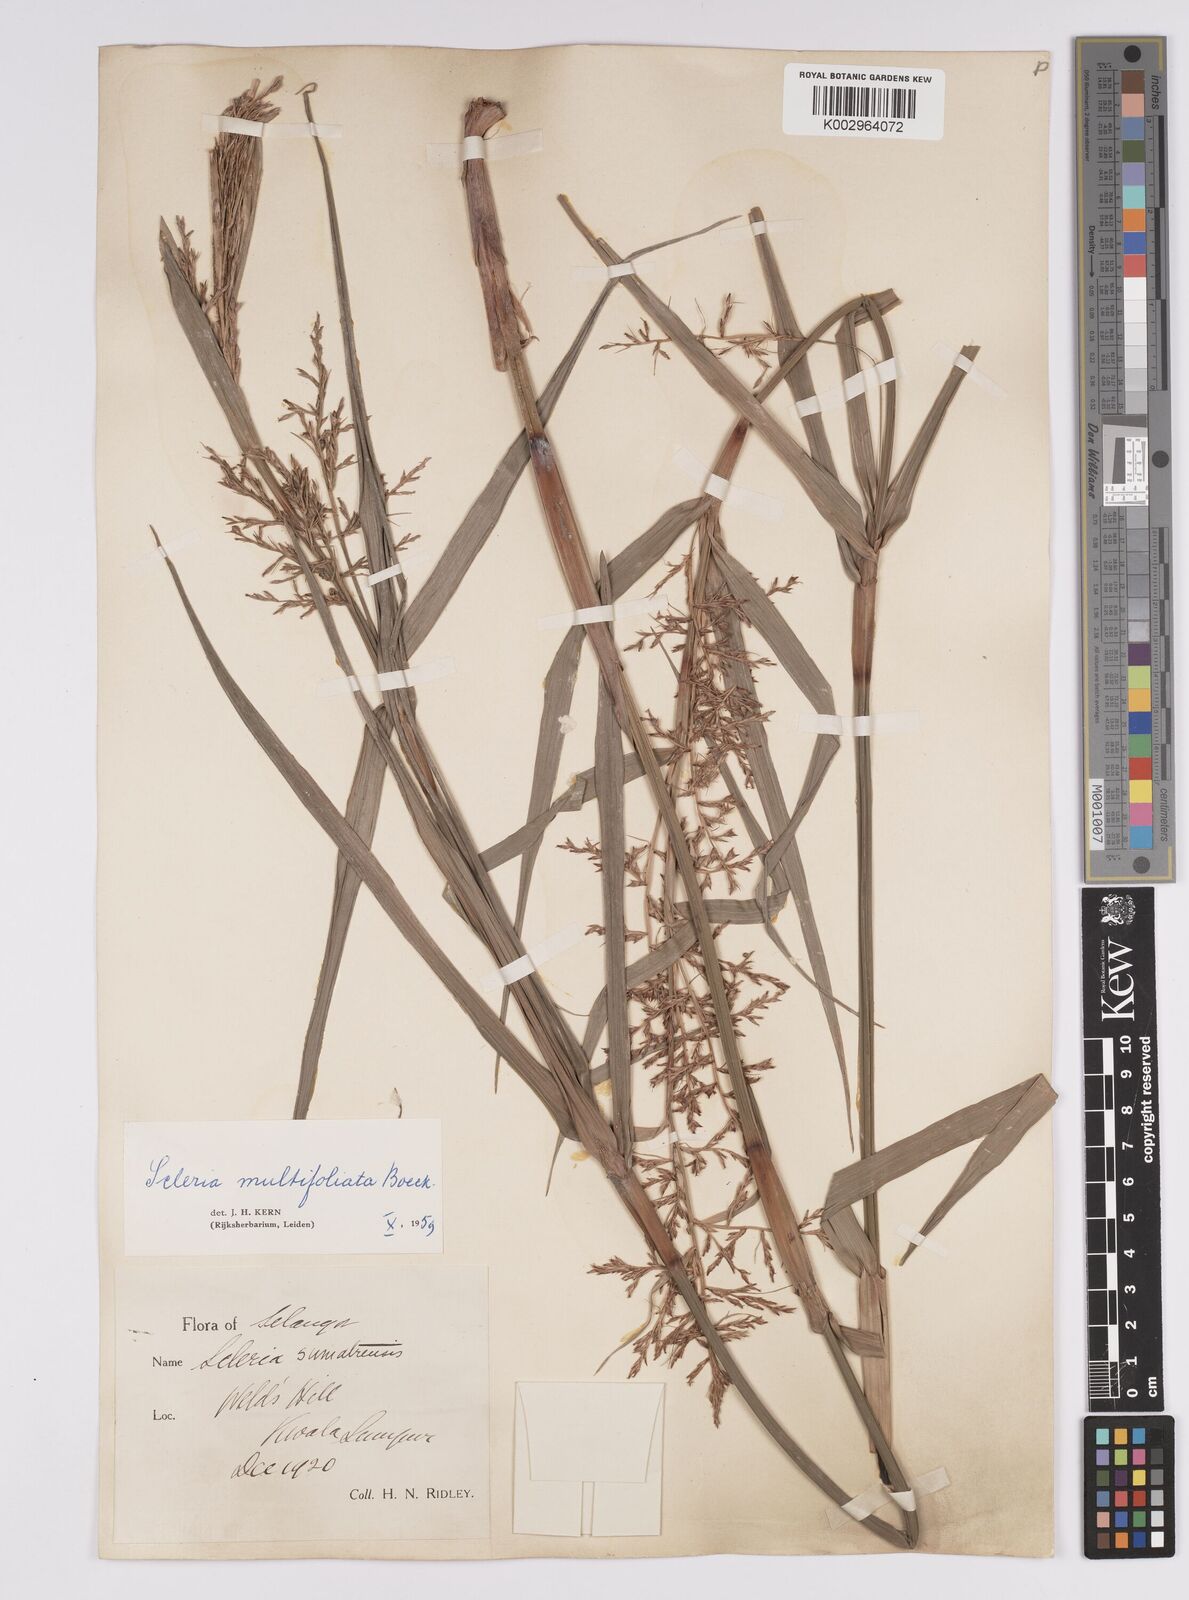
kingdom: Plantae
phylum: Tracheophyta
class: Liliopsida
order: Poales
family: Cyperaceae
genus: Scleria
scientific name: Scleria purpurascens
